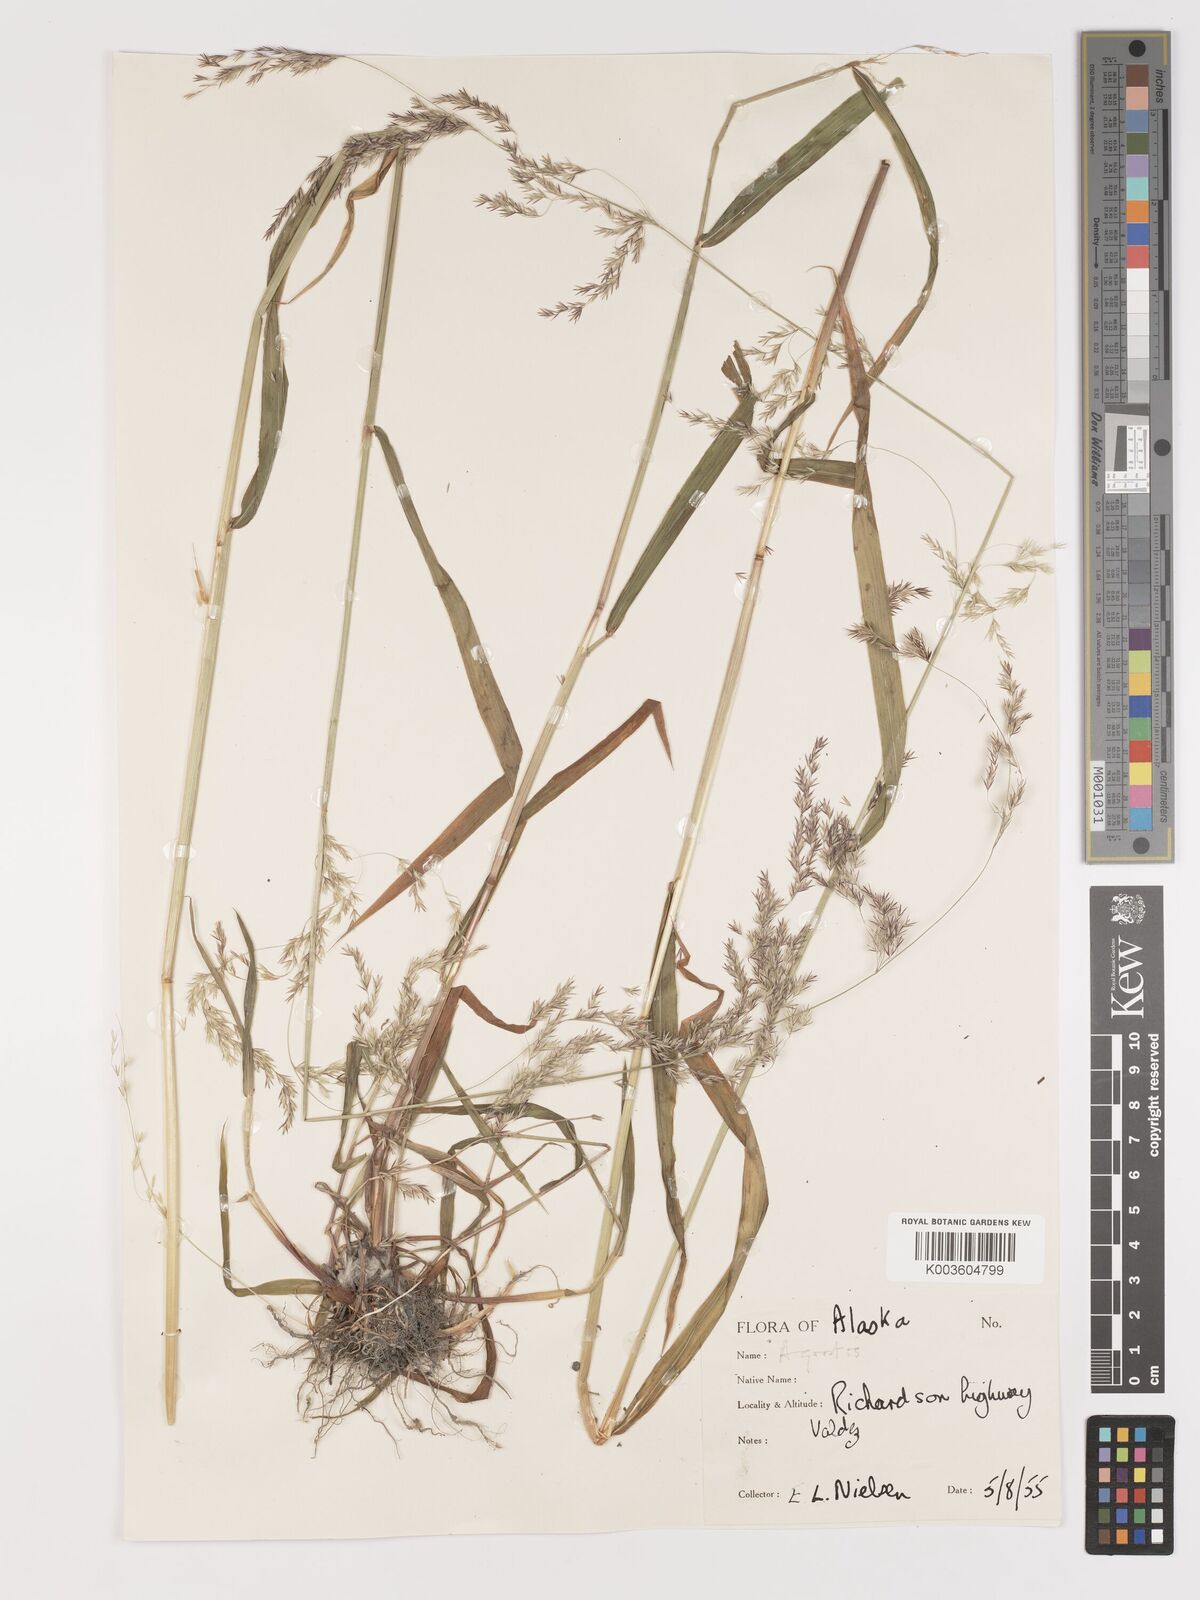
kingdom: Plantae
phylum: Tracheophyta
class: Liliopsida
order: Poales
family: Poaceae
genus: Agrostis
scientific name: Agrostis
